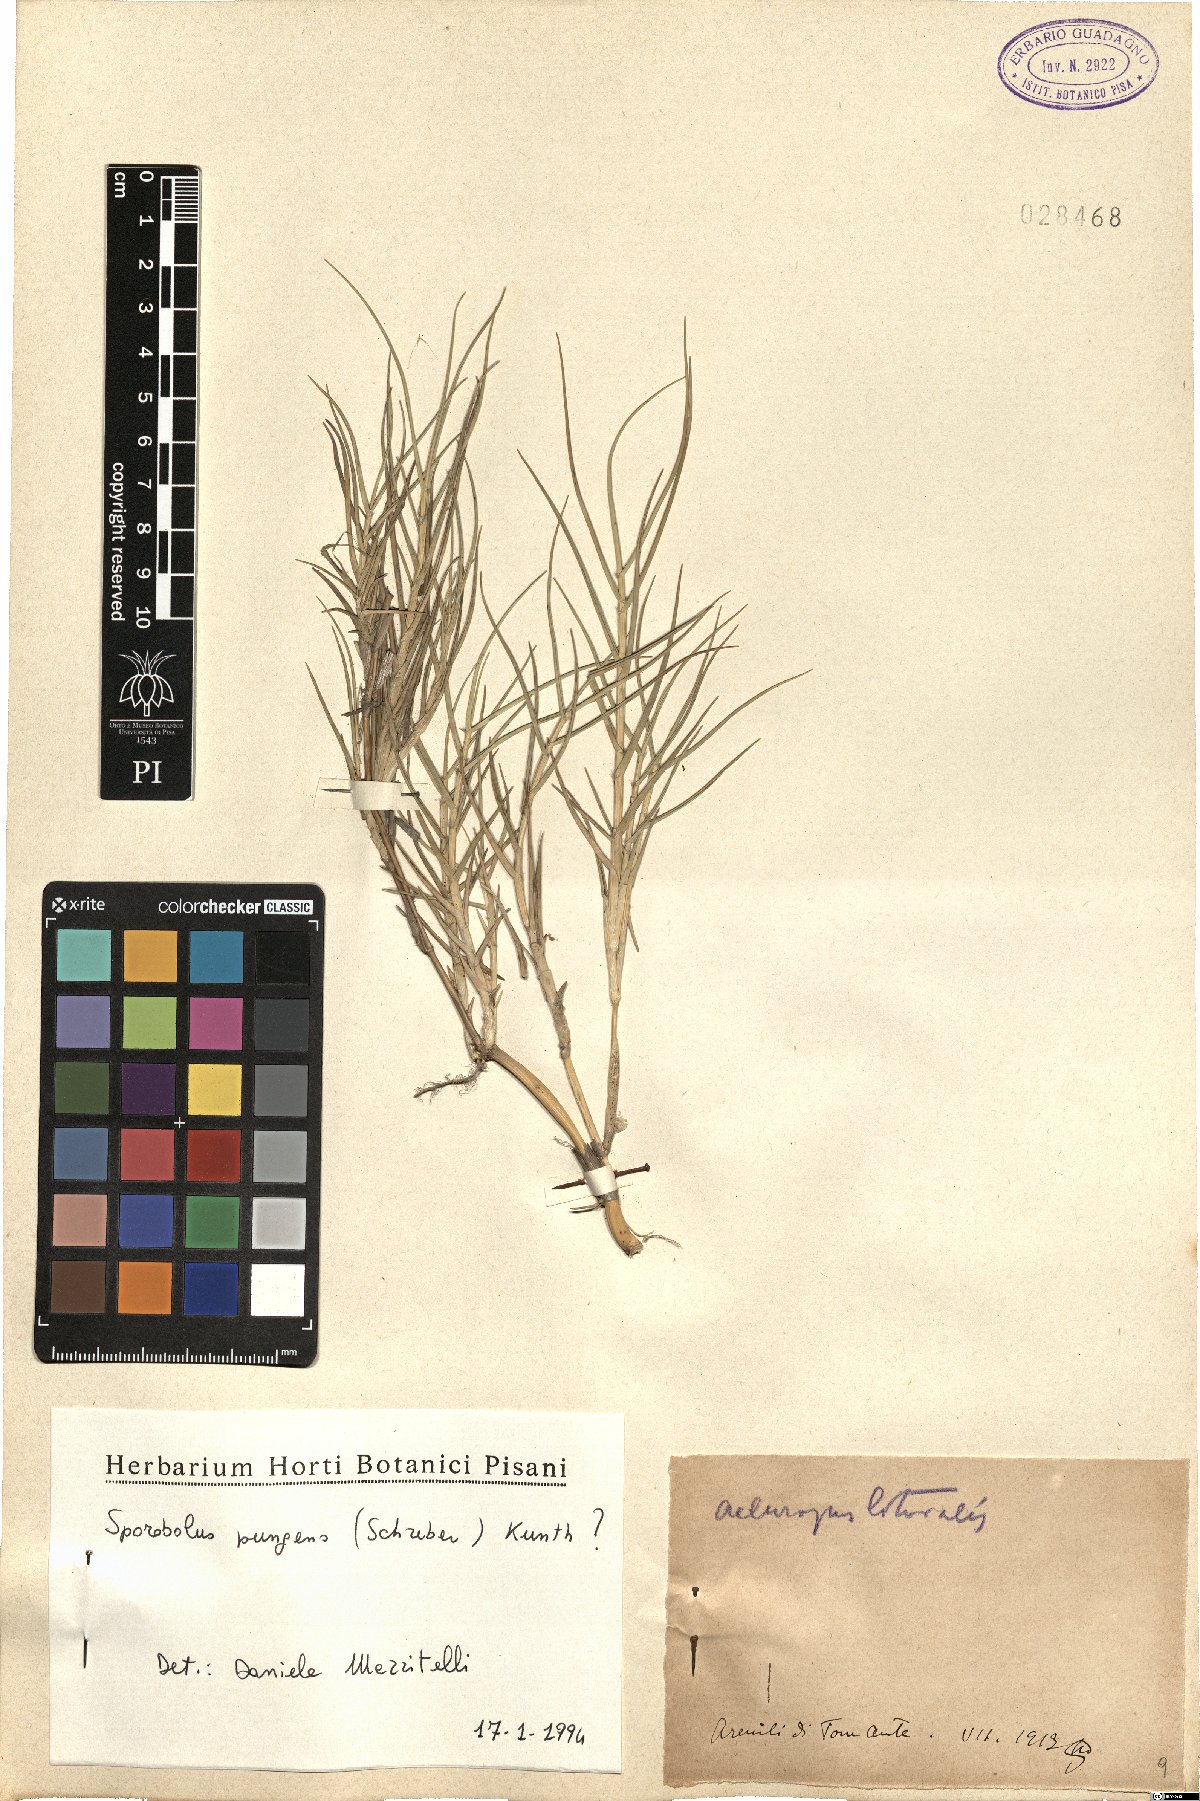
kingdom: Plantae
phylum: Tracheophyta
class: Liliopsida
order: Poales
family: Poaceae
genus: Sporobolus
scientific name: Sporobolus pungens
